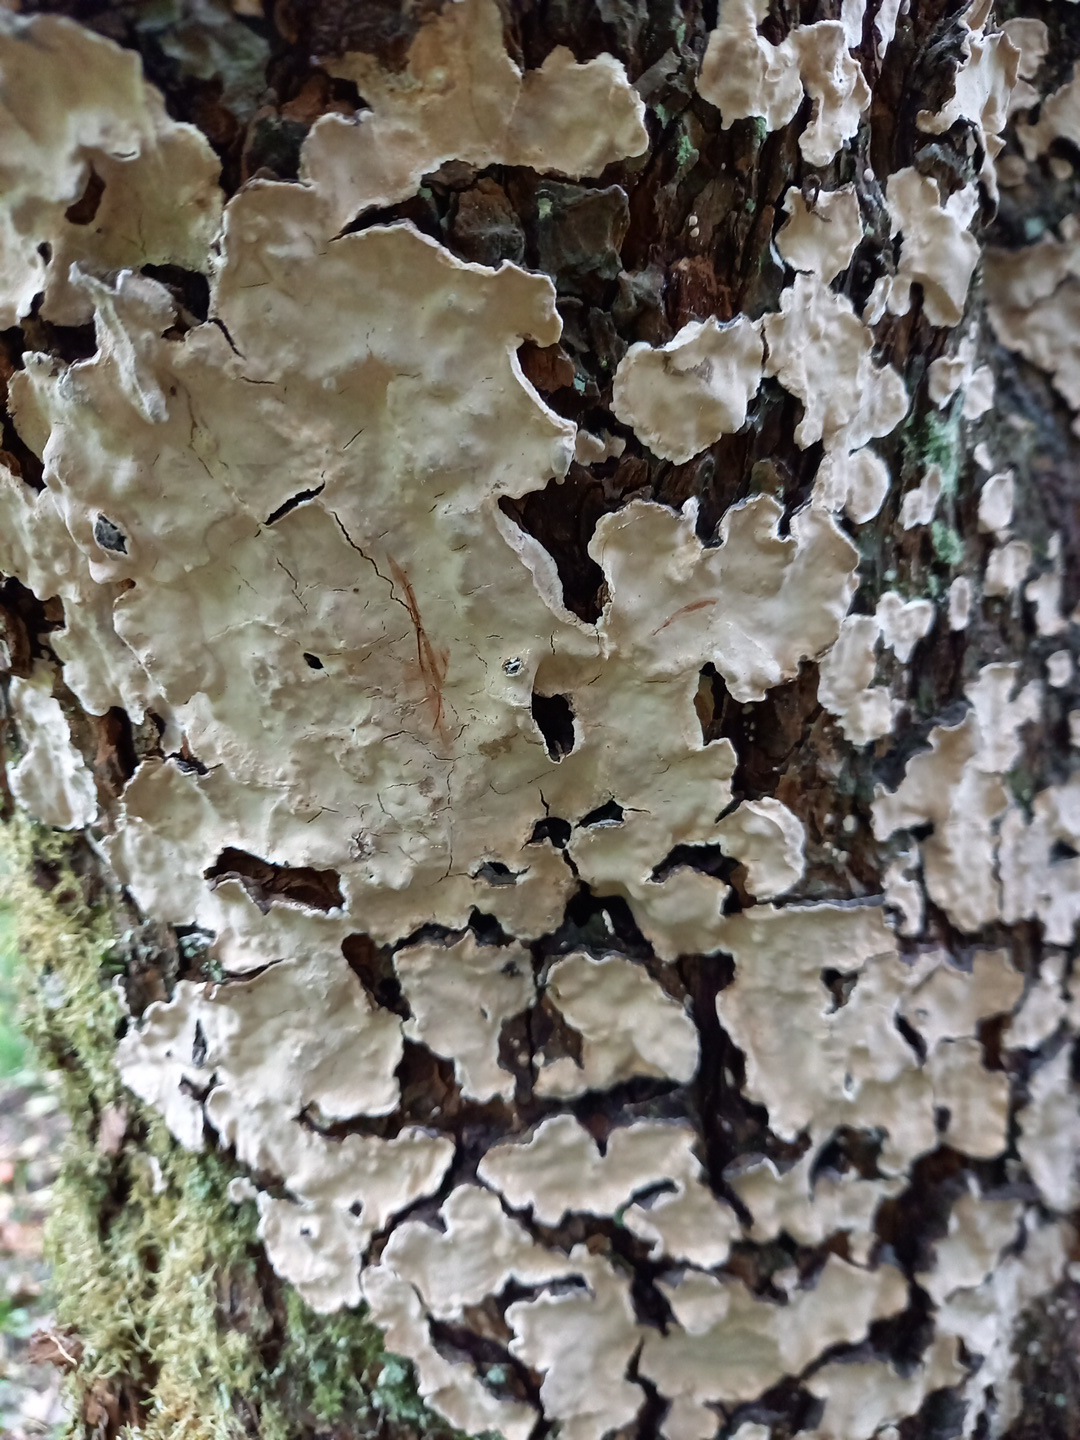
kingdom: Fungi
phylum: Basidiomycota
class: Agaricomycetes
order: Russulales
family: Stereaceae
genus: Stereum
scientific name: Stereum rugosum
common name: rynket lædersvamp
